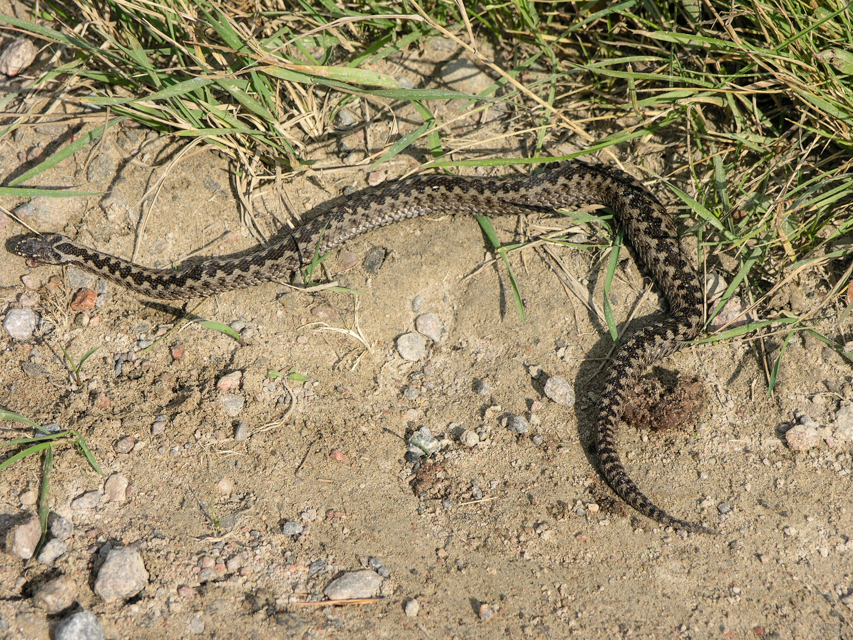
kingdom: Animalia
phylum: Chordata
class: Squamata
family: Viperidae
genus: Vipera
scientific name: Vipera berus
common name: Adder
